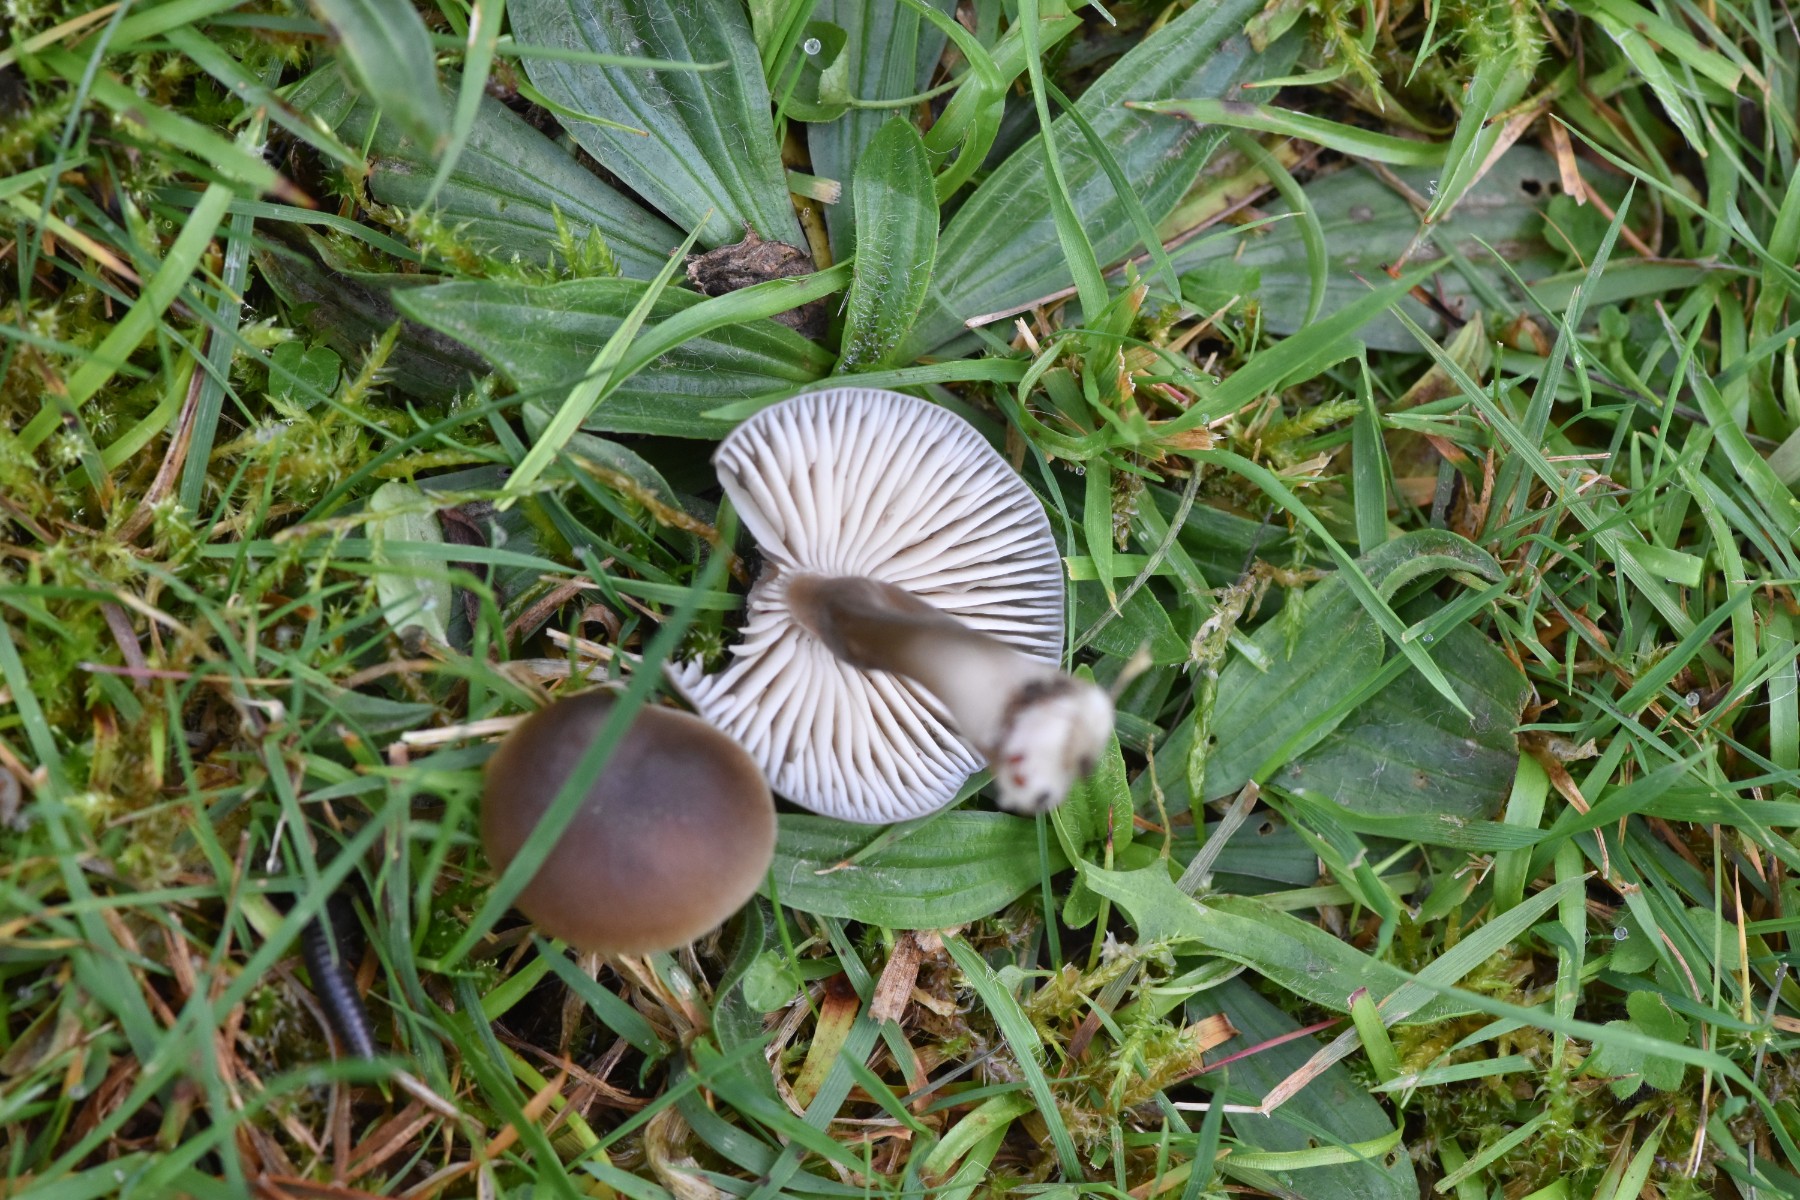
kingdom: Fungi
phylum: Basidiomycota
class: Agaricomycetes
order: Agaricales
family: Hygrophoraceae
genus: Neohygrocybe
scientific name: Neohygrocybe nitrata
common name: stinkende vokshat
